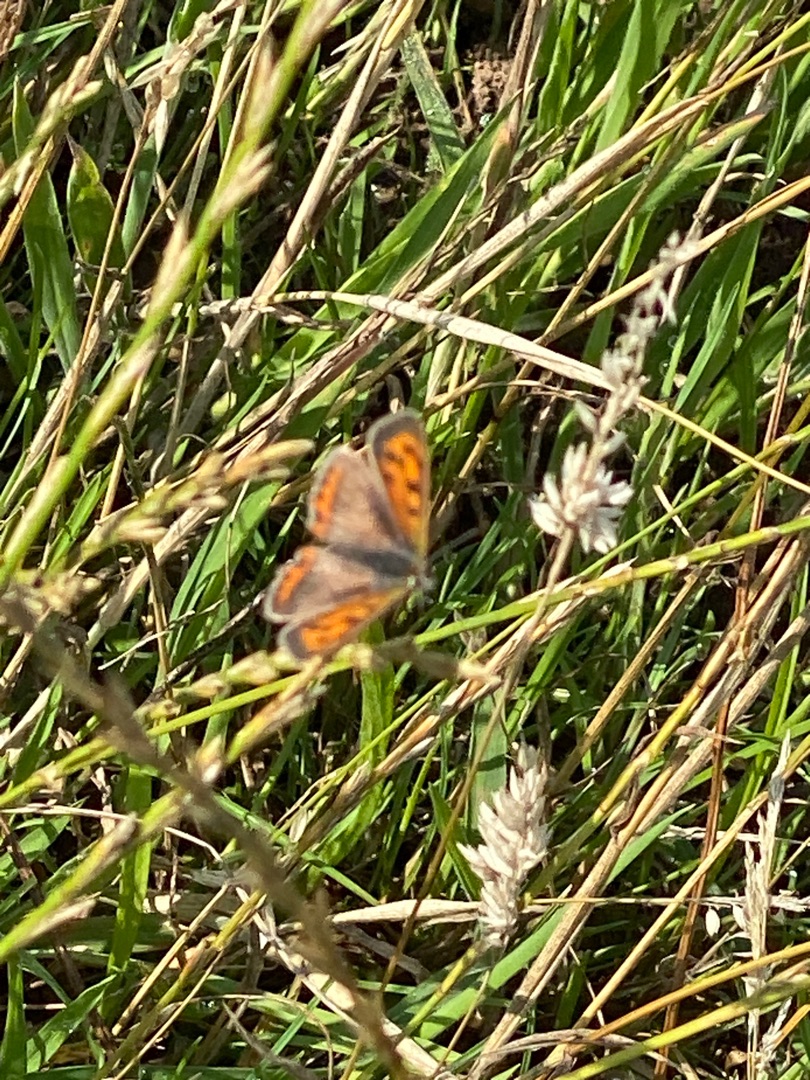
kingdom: Animalia
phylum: Arthropoda
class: Insecta
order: Lepidoptera
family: Lycaenidae
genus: Lycaena
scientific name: Lycaena phlaeas
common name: Lille ildfugl
